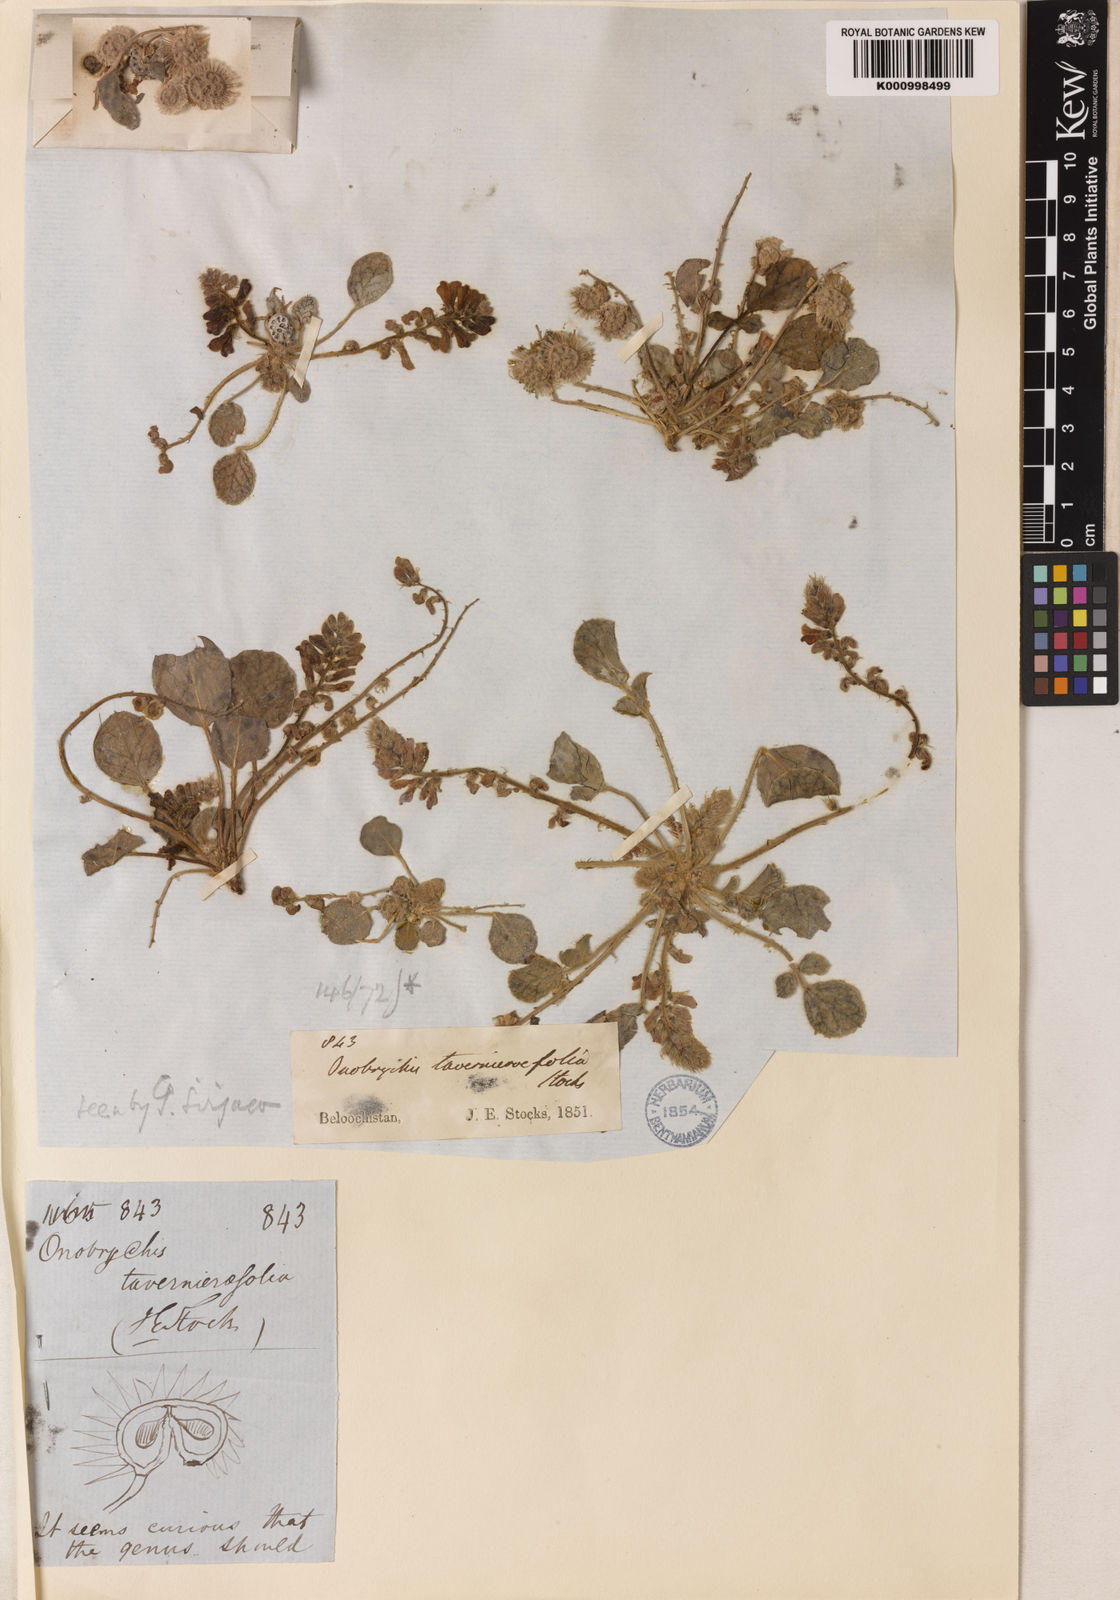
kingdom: Plantae
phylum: Tracheophyta
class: Magnoliopsida
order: Fabales
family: Fabaceae
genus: Onobrychis
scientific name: Onobrychis tavernierifolia
